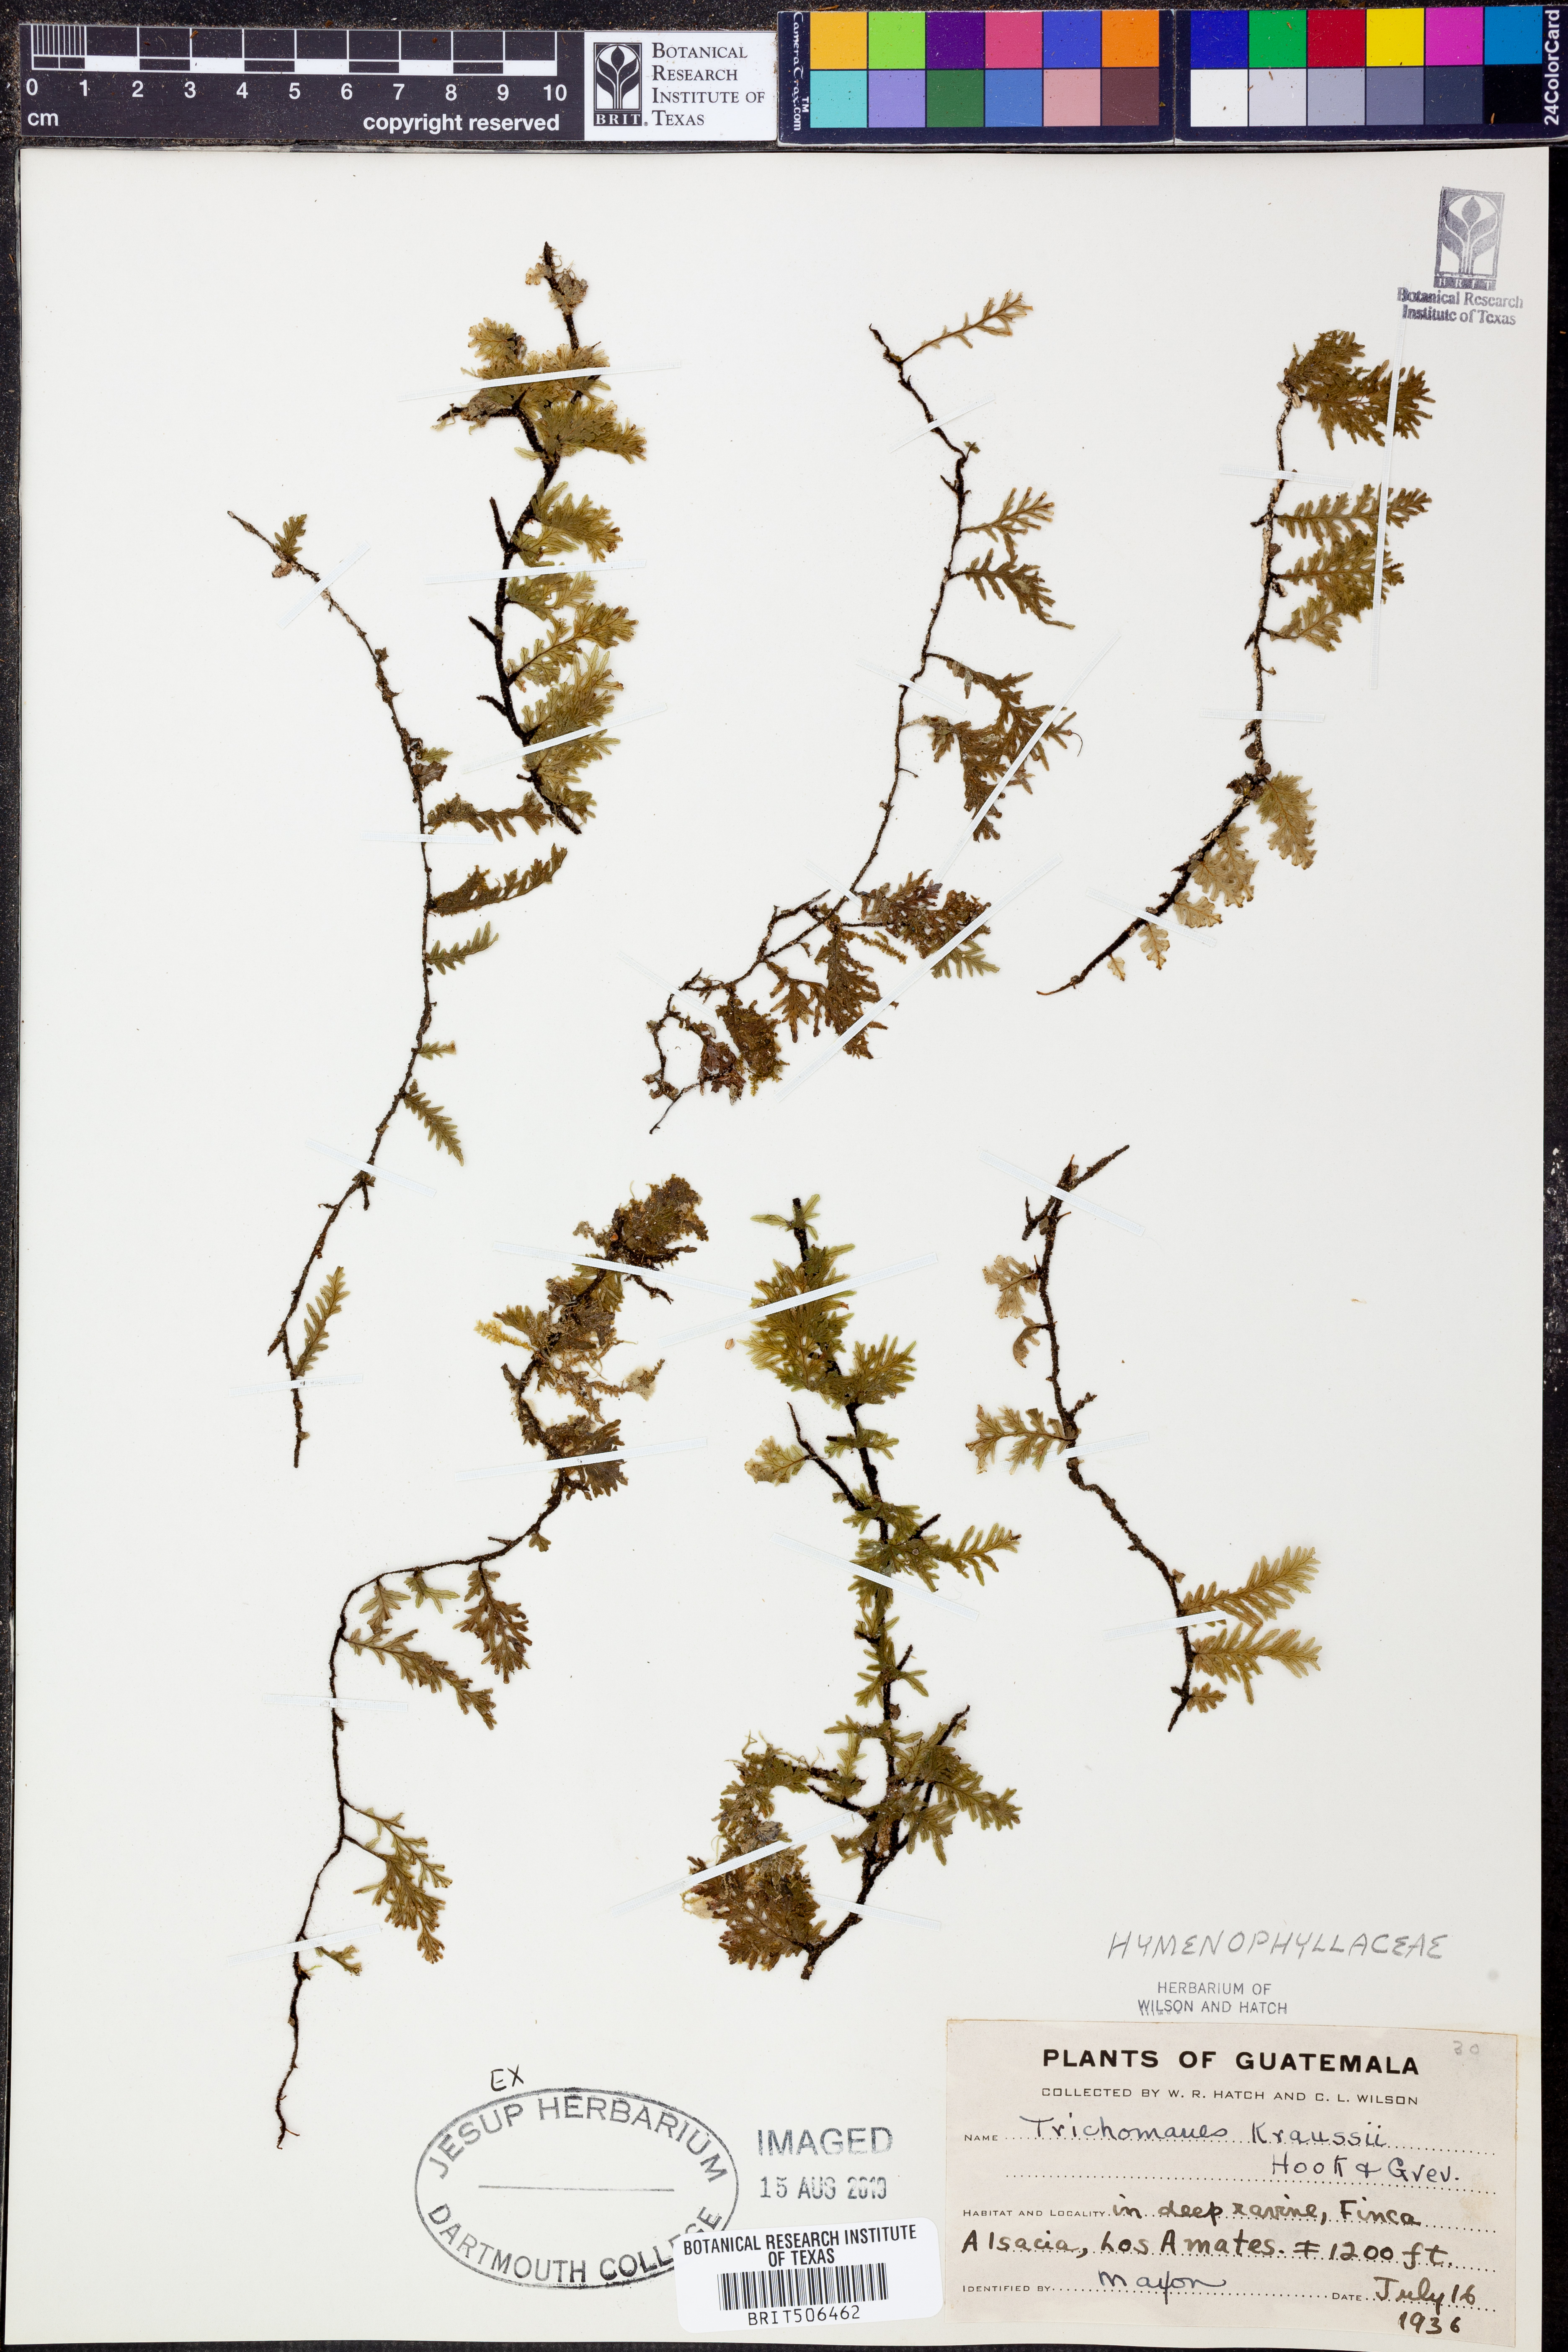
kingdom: Plantae
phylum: Tracheophyta
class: Polypodiopsida
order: Hymenophyllales
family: Hymenophyllaceae
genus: Didymoglossum
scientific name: Didymoglossum kraussii
